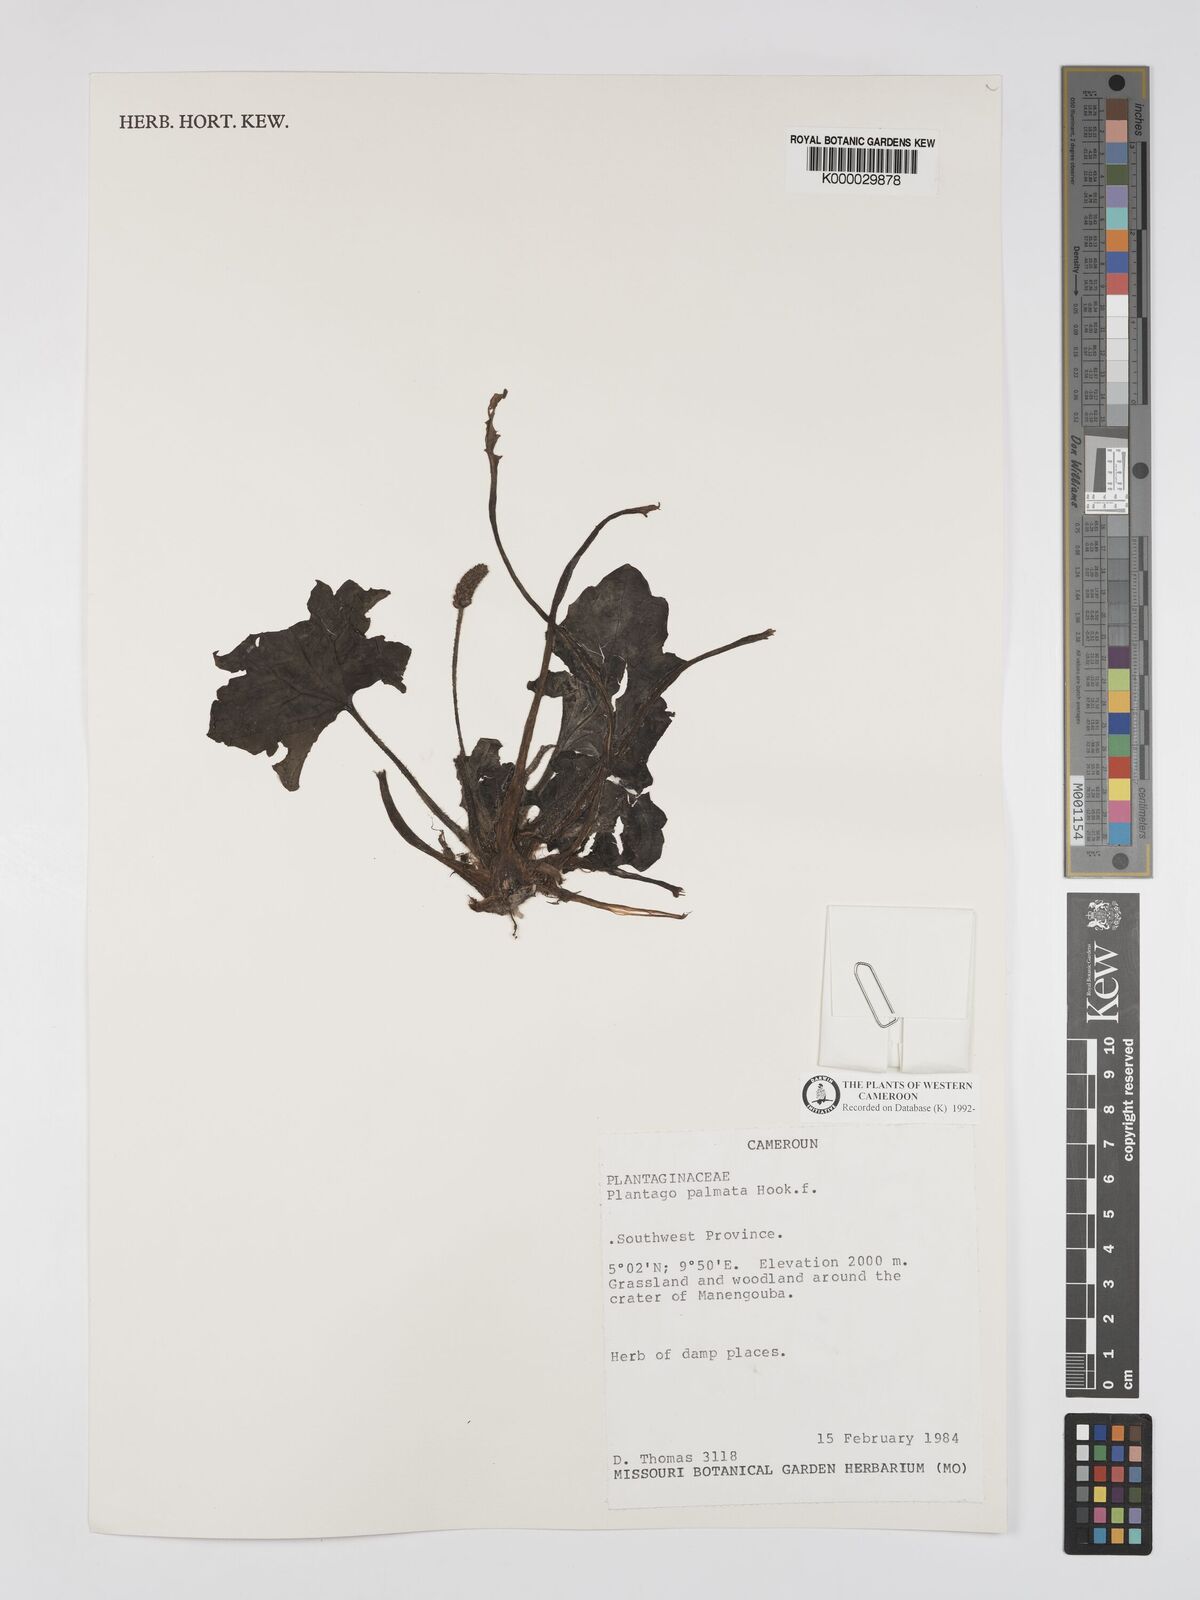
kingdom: Plantae
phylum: Tracheophyta
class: Magnoliopsida
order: Lamiales
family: Plantaginaceae
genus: Plantago
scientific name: Plantago palmata
